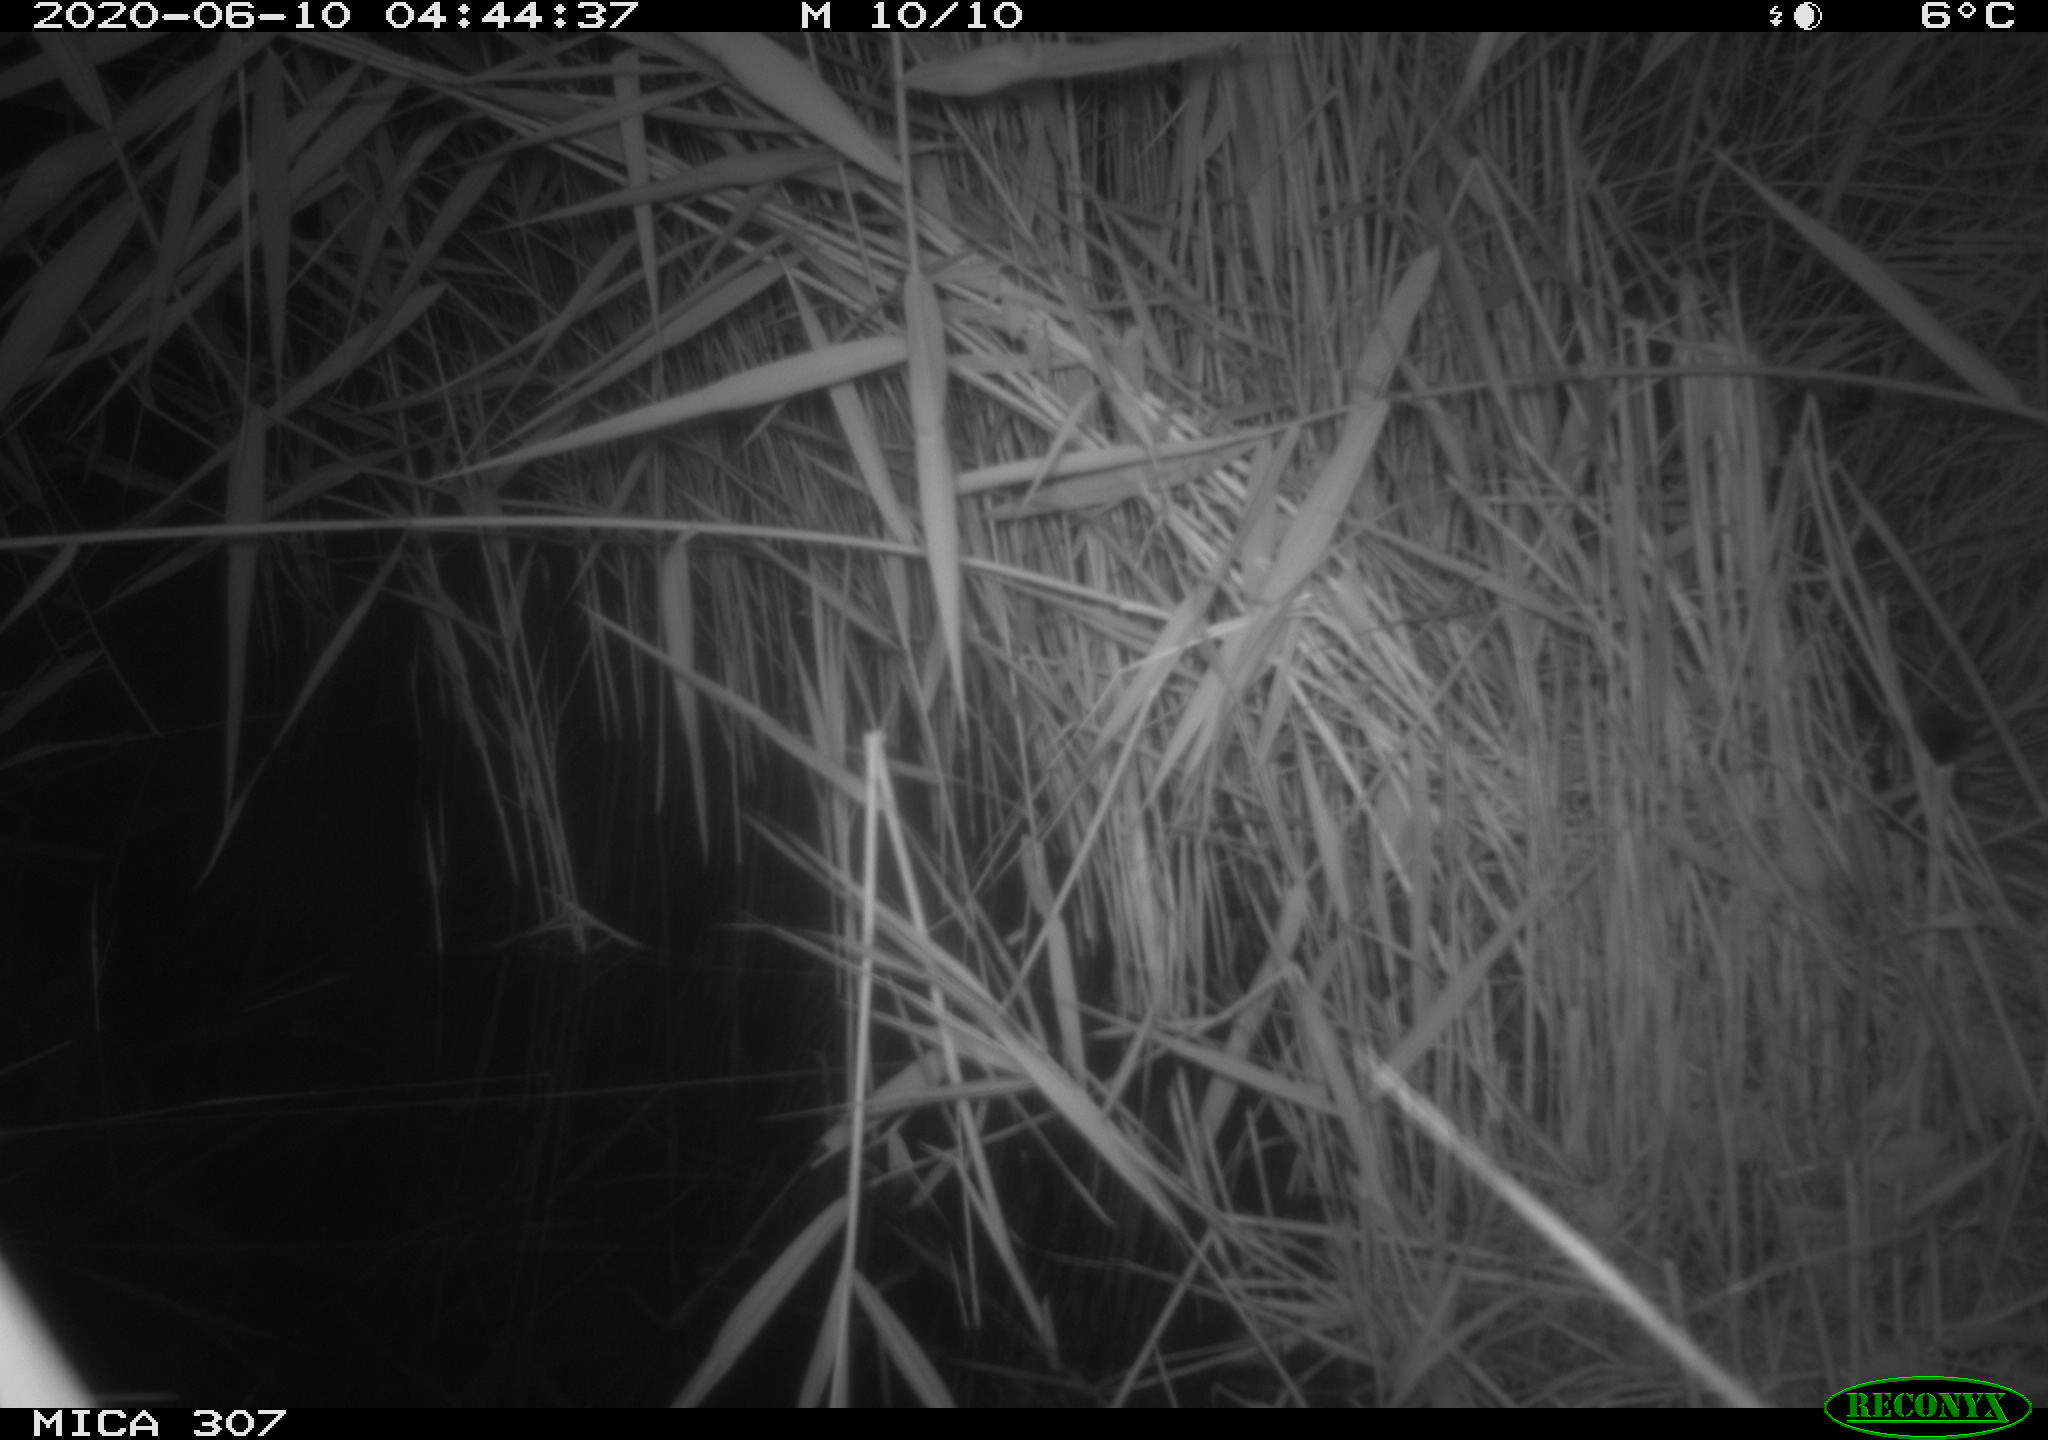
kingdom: Animalia
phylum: Chordata
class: Mammalia
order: Rodentia
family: Muridae
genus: Rattus
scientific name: Rattus norvegicus
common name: Brown rat
